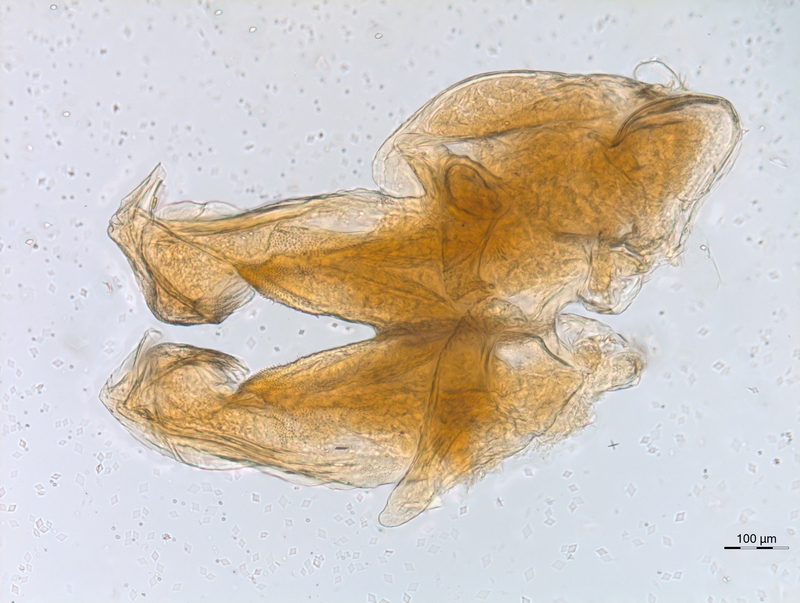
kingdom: Animalia
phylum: Arthropoda
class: Diplopoda
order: Chordeumatida
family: Diplomaragnidae
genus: Diplomaragna
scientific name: Diplomaragna gracilipes
